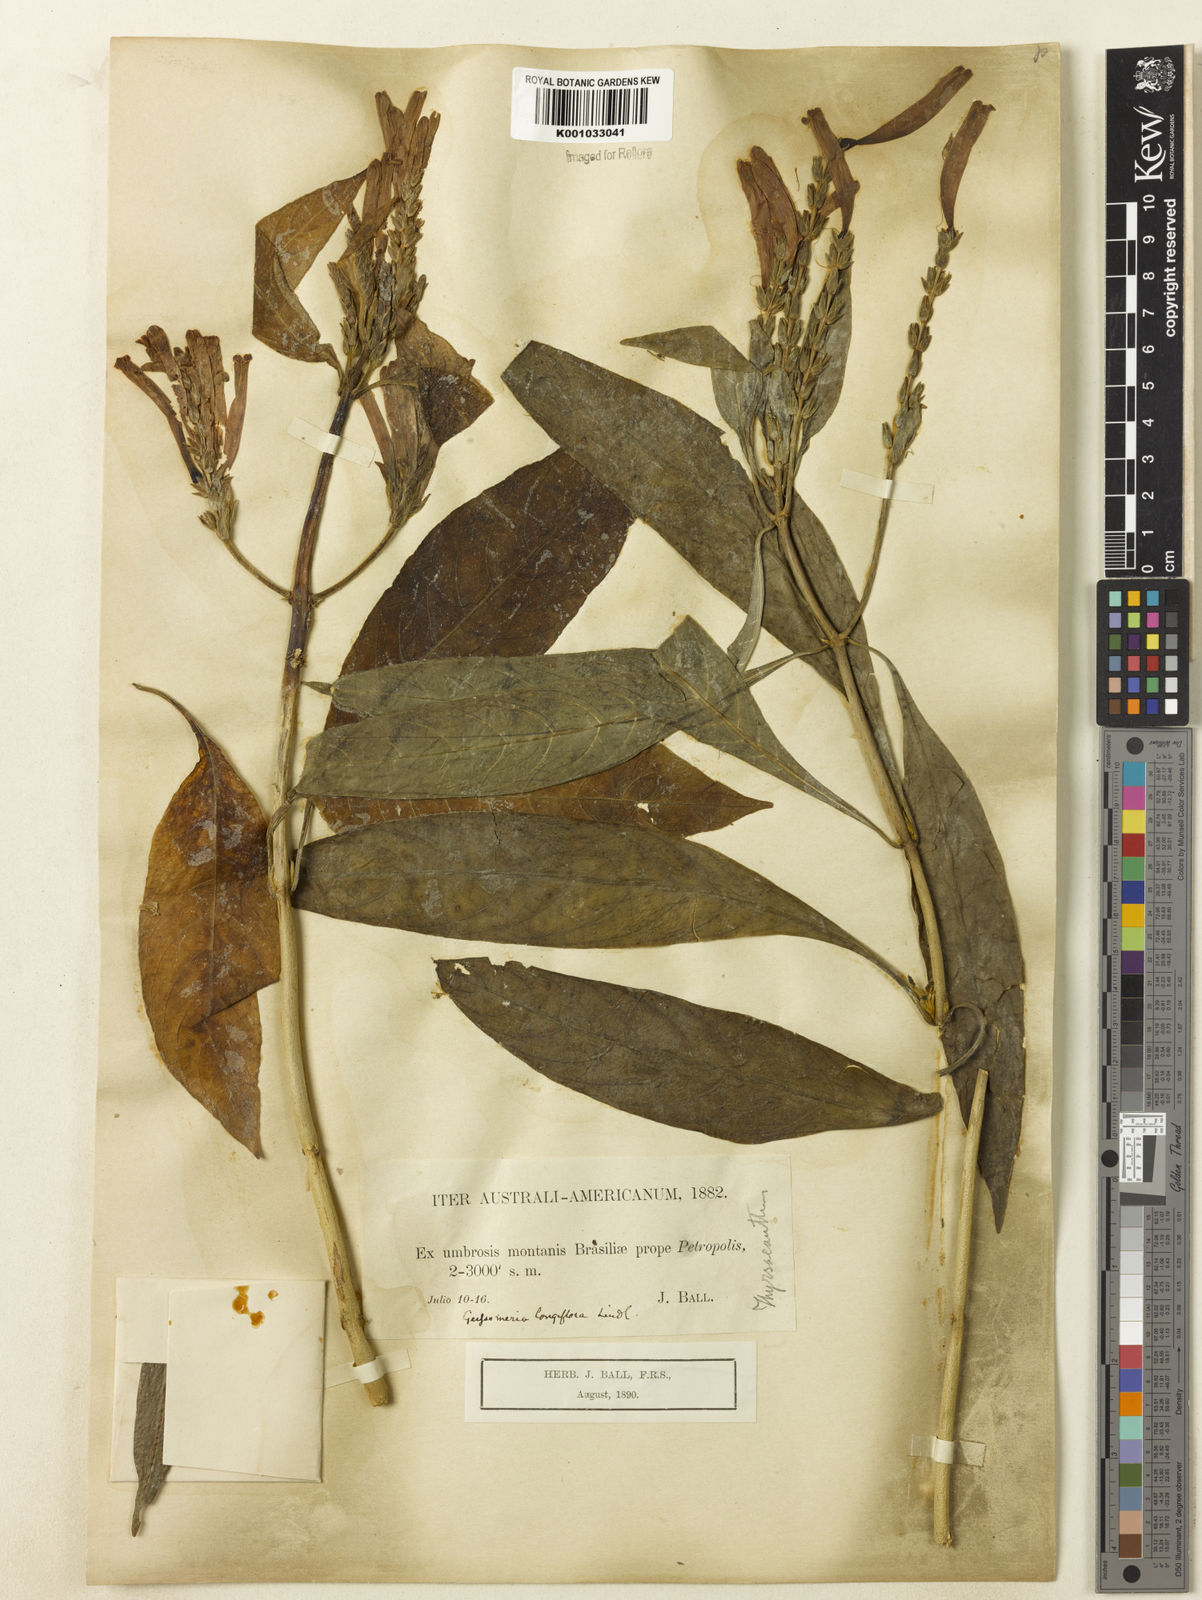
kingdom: Plantae
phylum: Tracheophyta
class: Magnoliopsida
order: Lamiales
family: Acanthaceae
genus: Aphelandra
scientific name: Aphelandra longiflora
